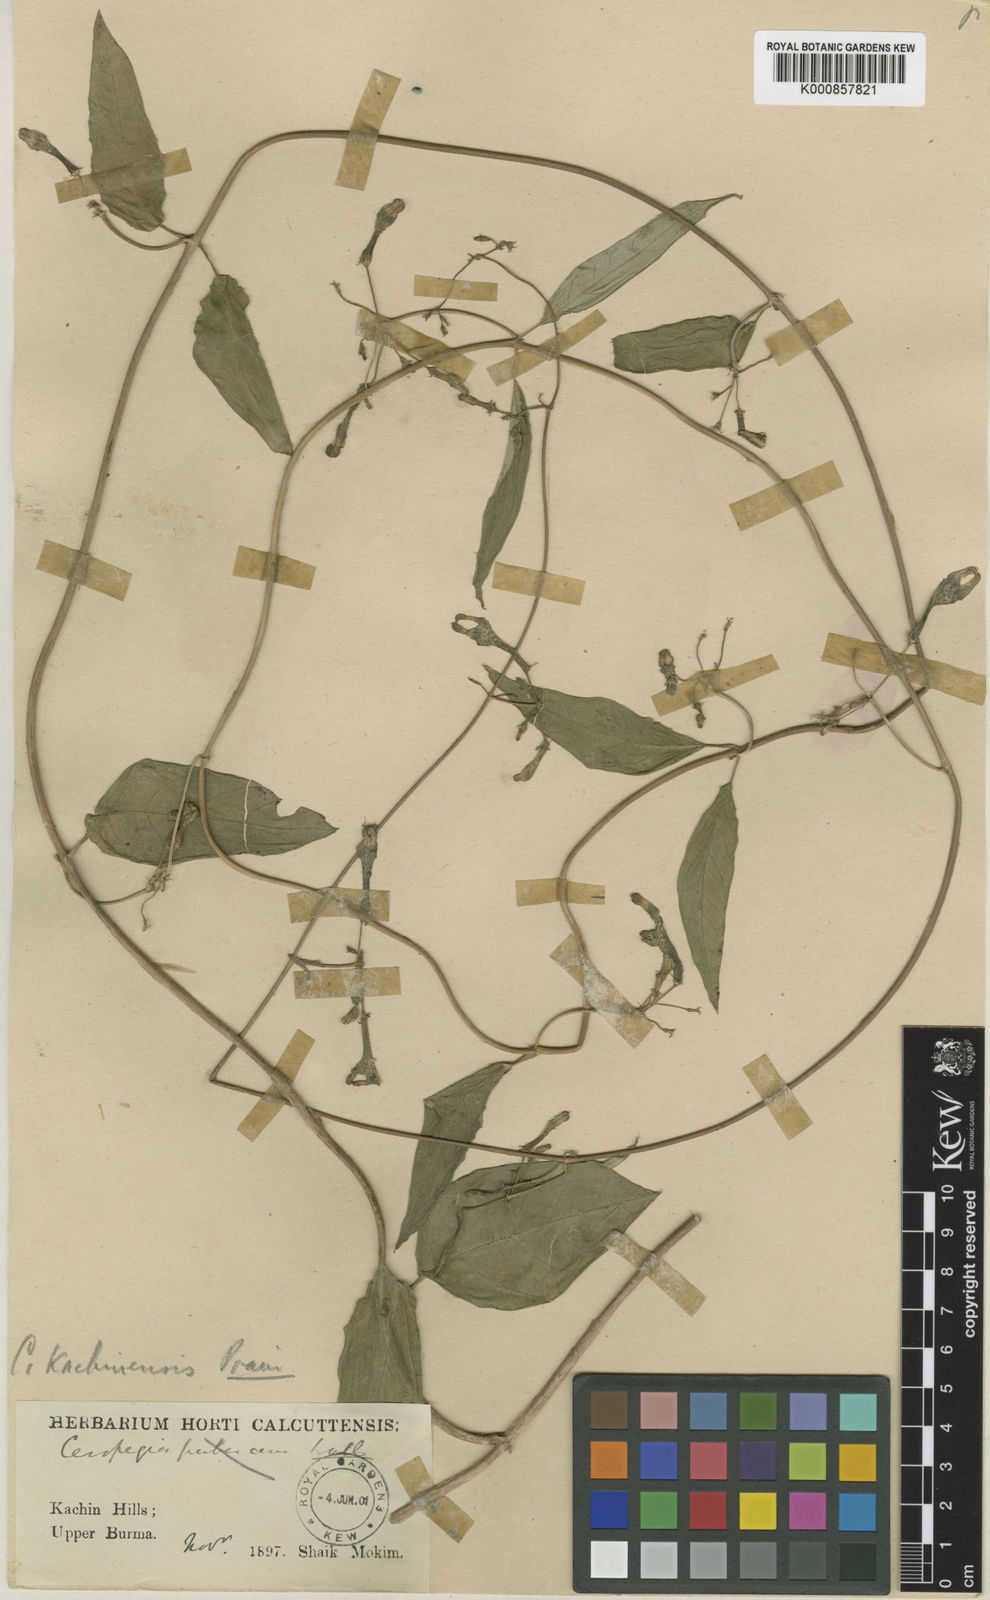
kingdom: Plantae
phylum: Tracheophyta
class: Magnoliopsida
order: Gentianales
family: Apocynaceae
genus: Ceropegia
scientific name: Ceropegia kachinensis
